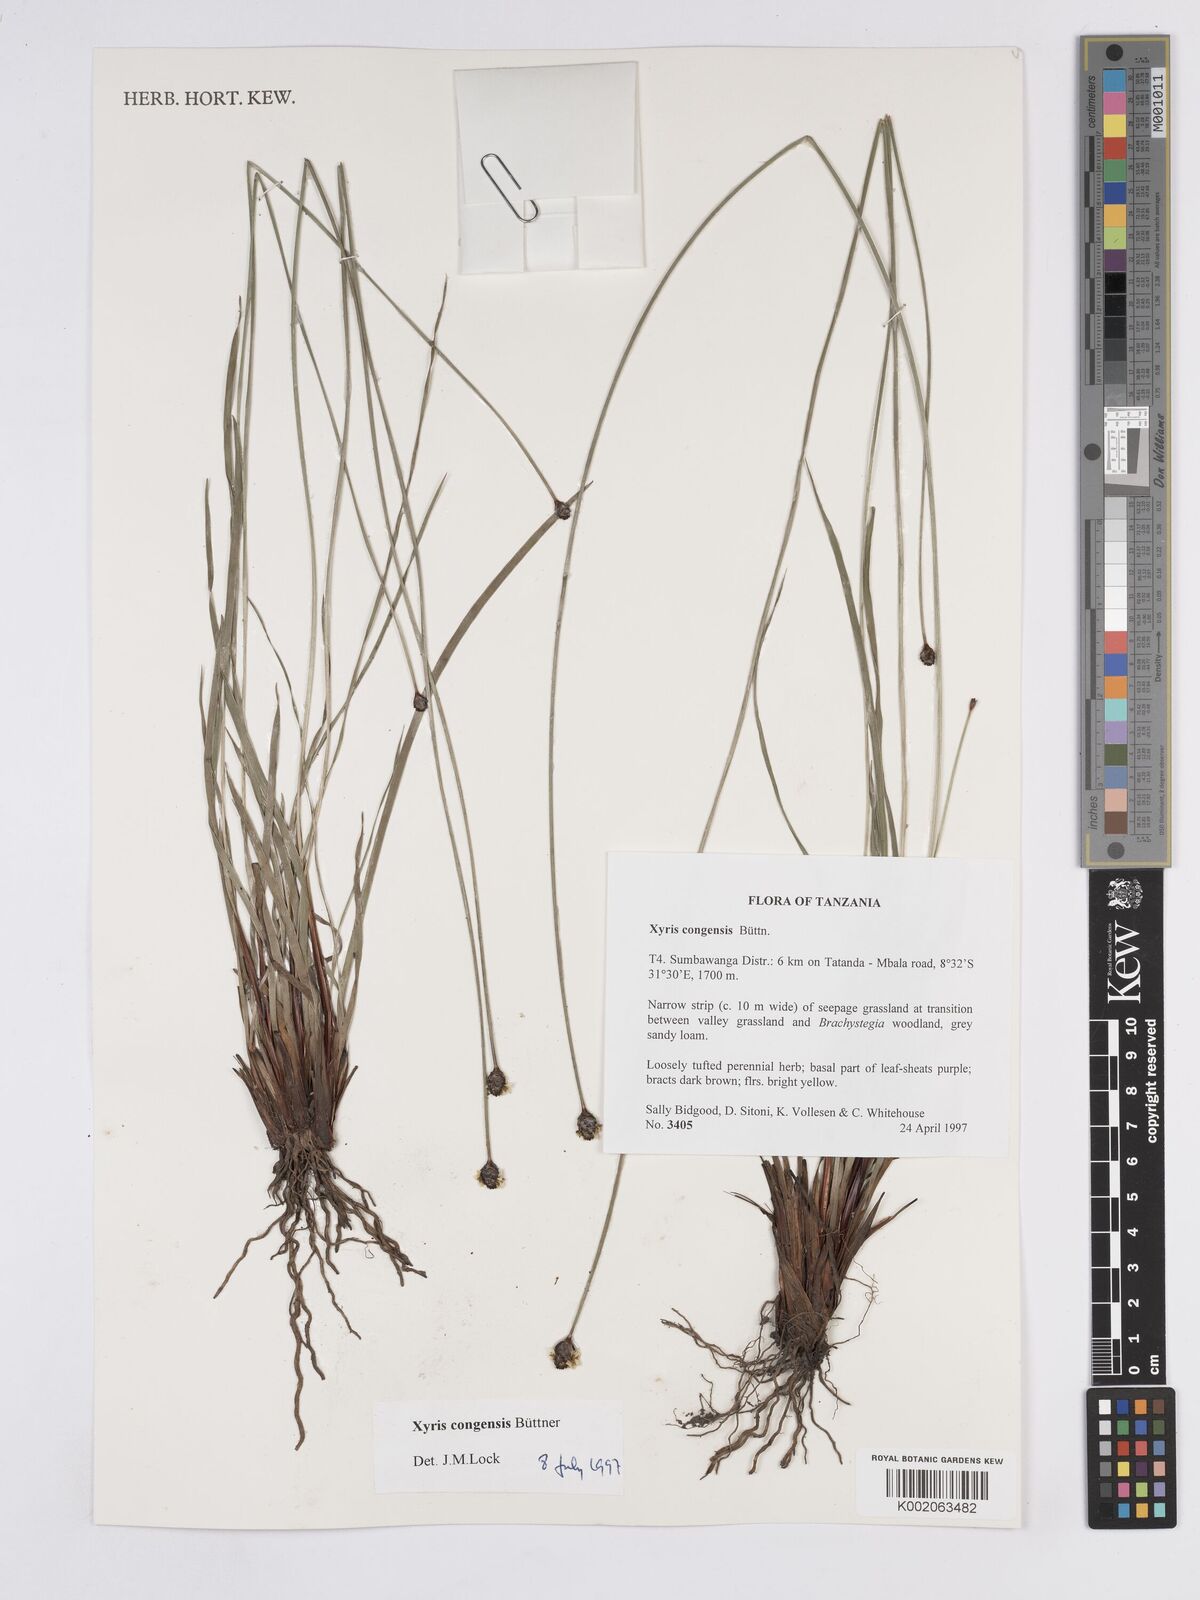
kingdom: Plantae
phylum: Tracheophyta
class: Liliopsida
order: Poales
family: Xyridaceae
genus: Xyris
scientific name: Xyris congensis
